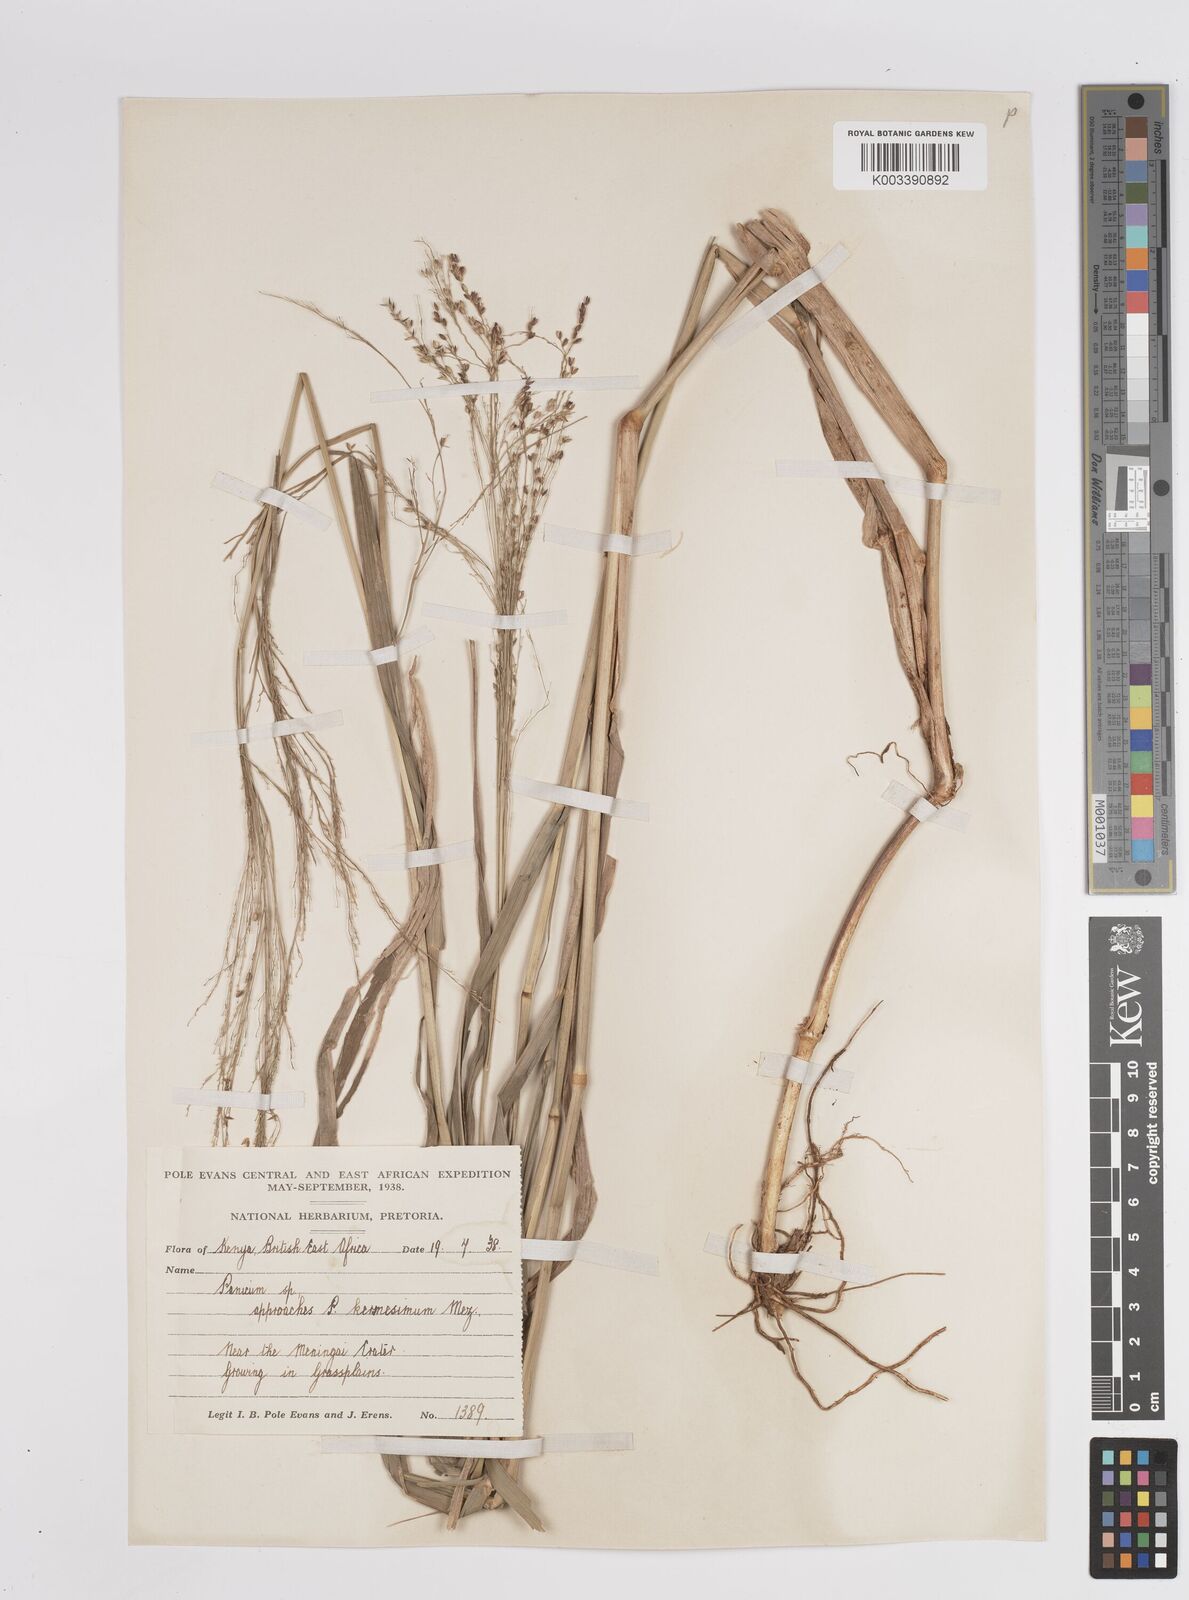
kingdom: Plantae
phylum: Tracheophyta
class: Liliopsida
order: Poales
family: Poaceae
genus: Panicum
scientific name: Panicum merkeri
